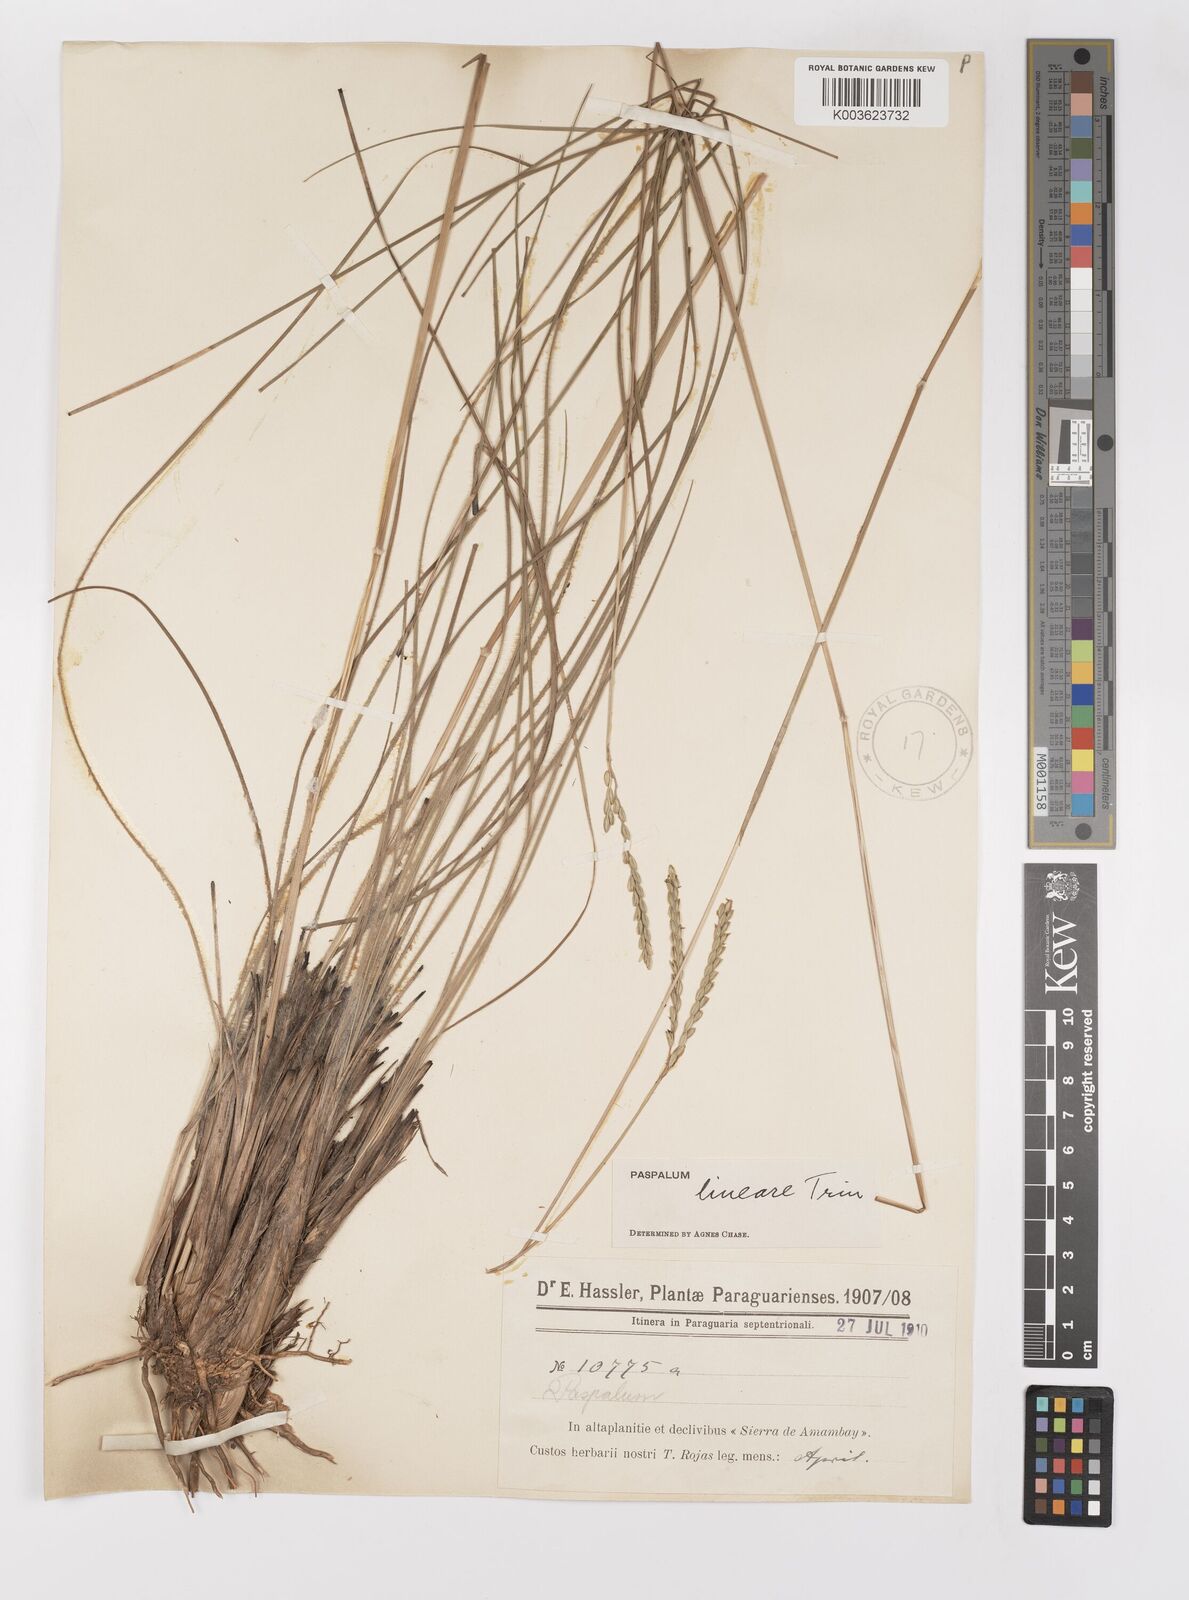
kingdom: Plantae
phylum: Tracheophyta
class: Liliopsida
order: Poales
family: Poaceae
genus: Paspalum
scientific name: Paspalum lineare
